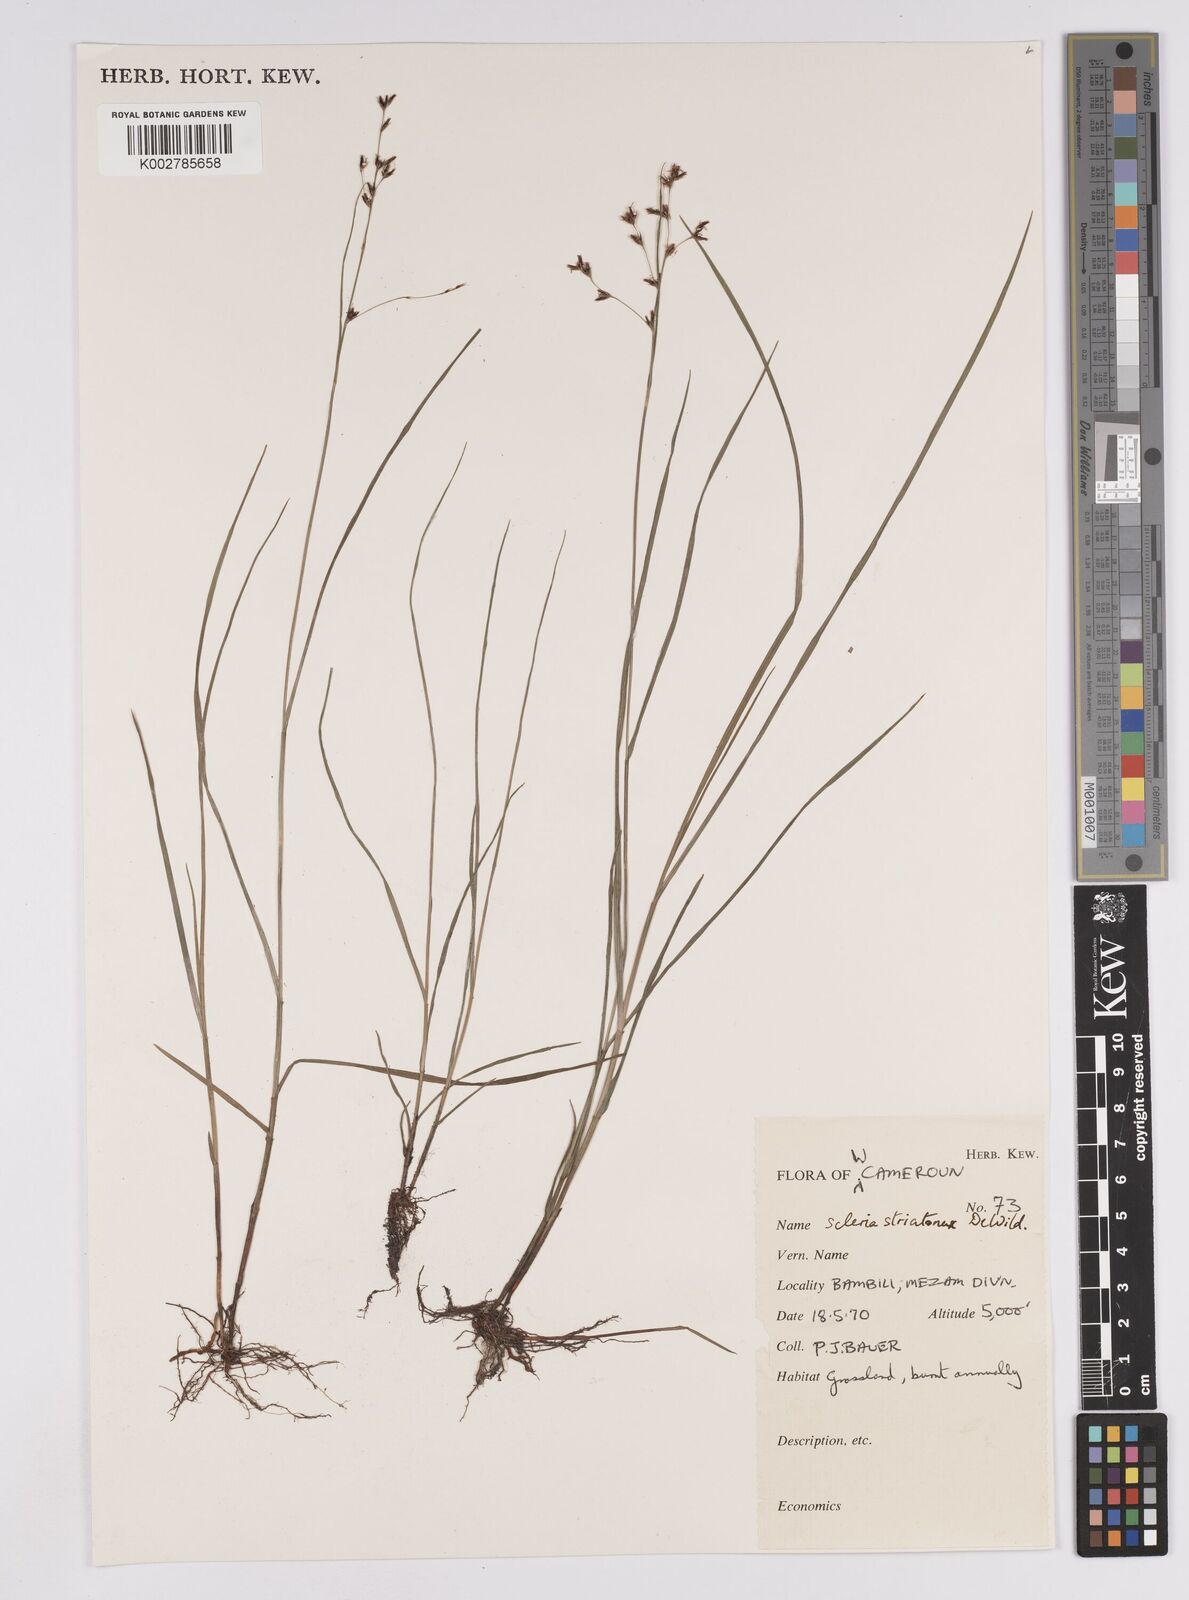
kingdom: Plantae
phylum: Tracheophyta
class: Liliopsida
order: Poales
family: Cyperaceae
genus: Scleria
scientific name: Scleria woodii
